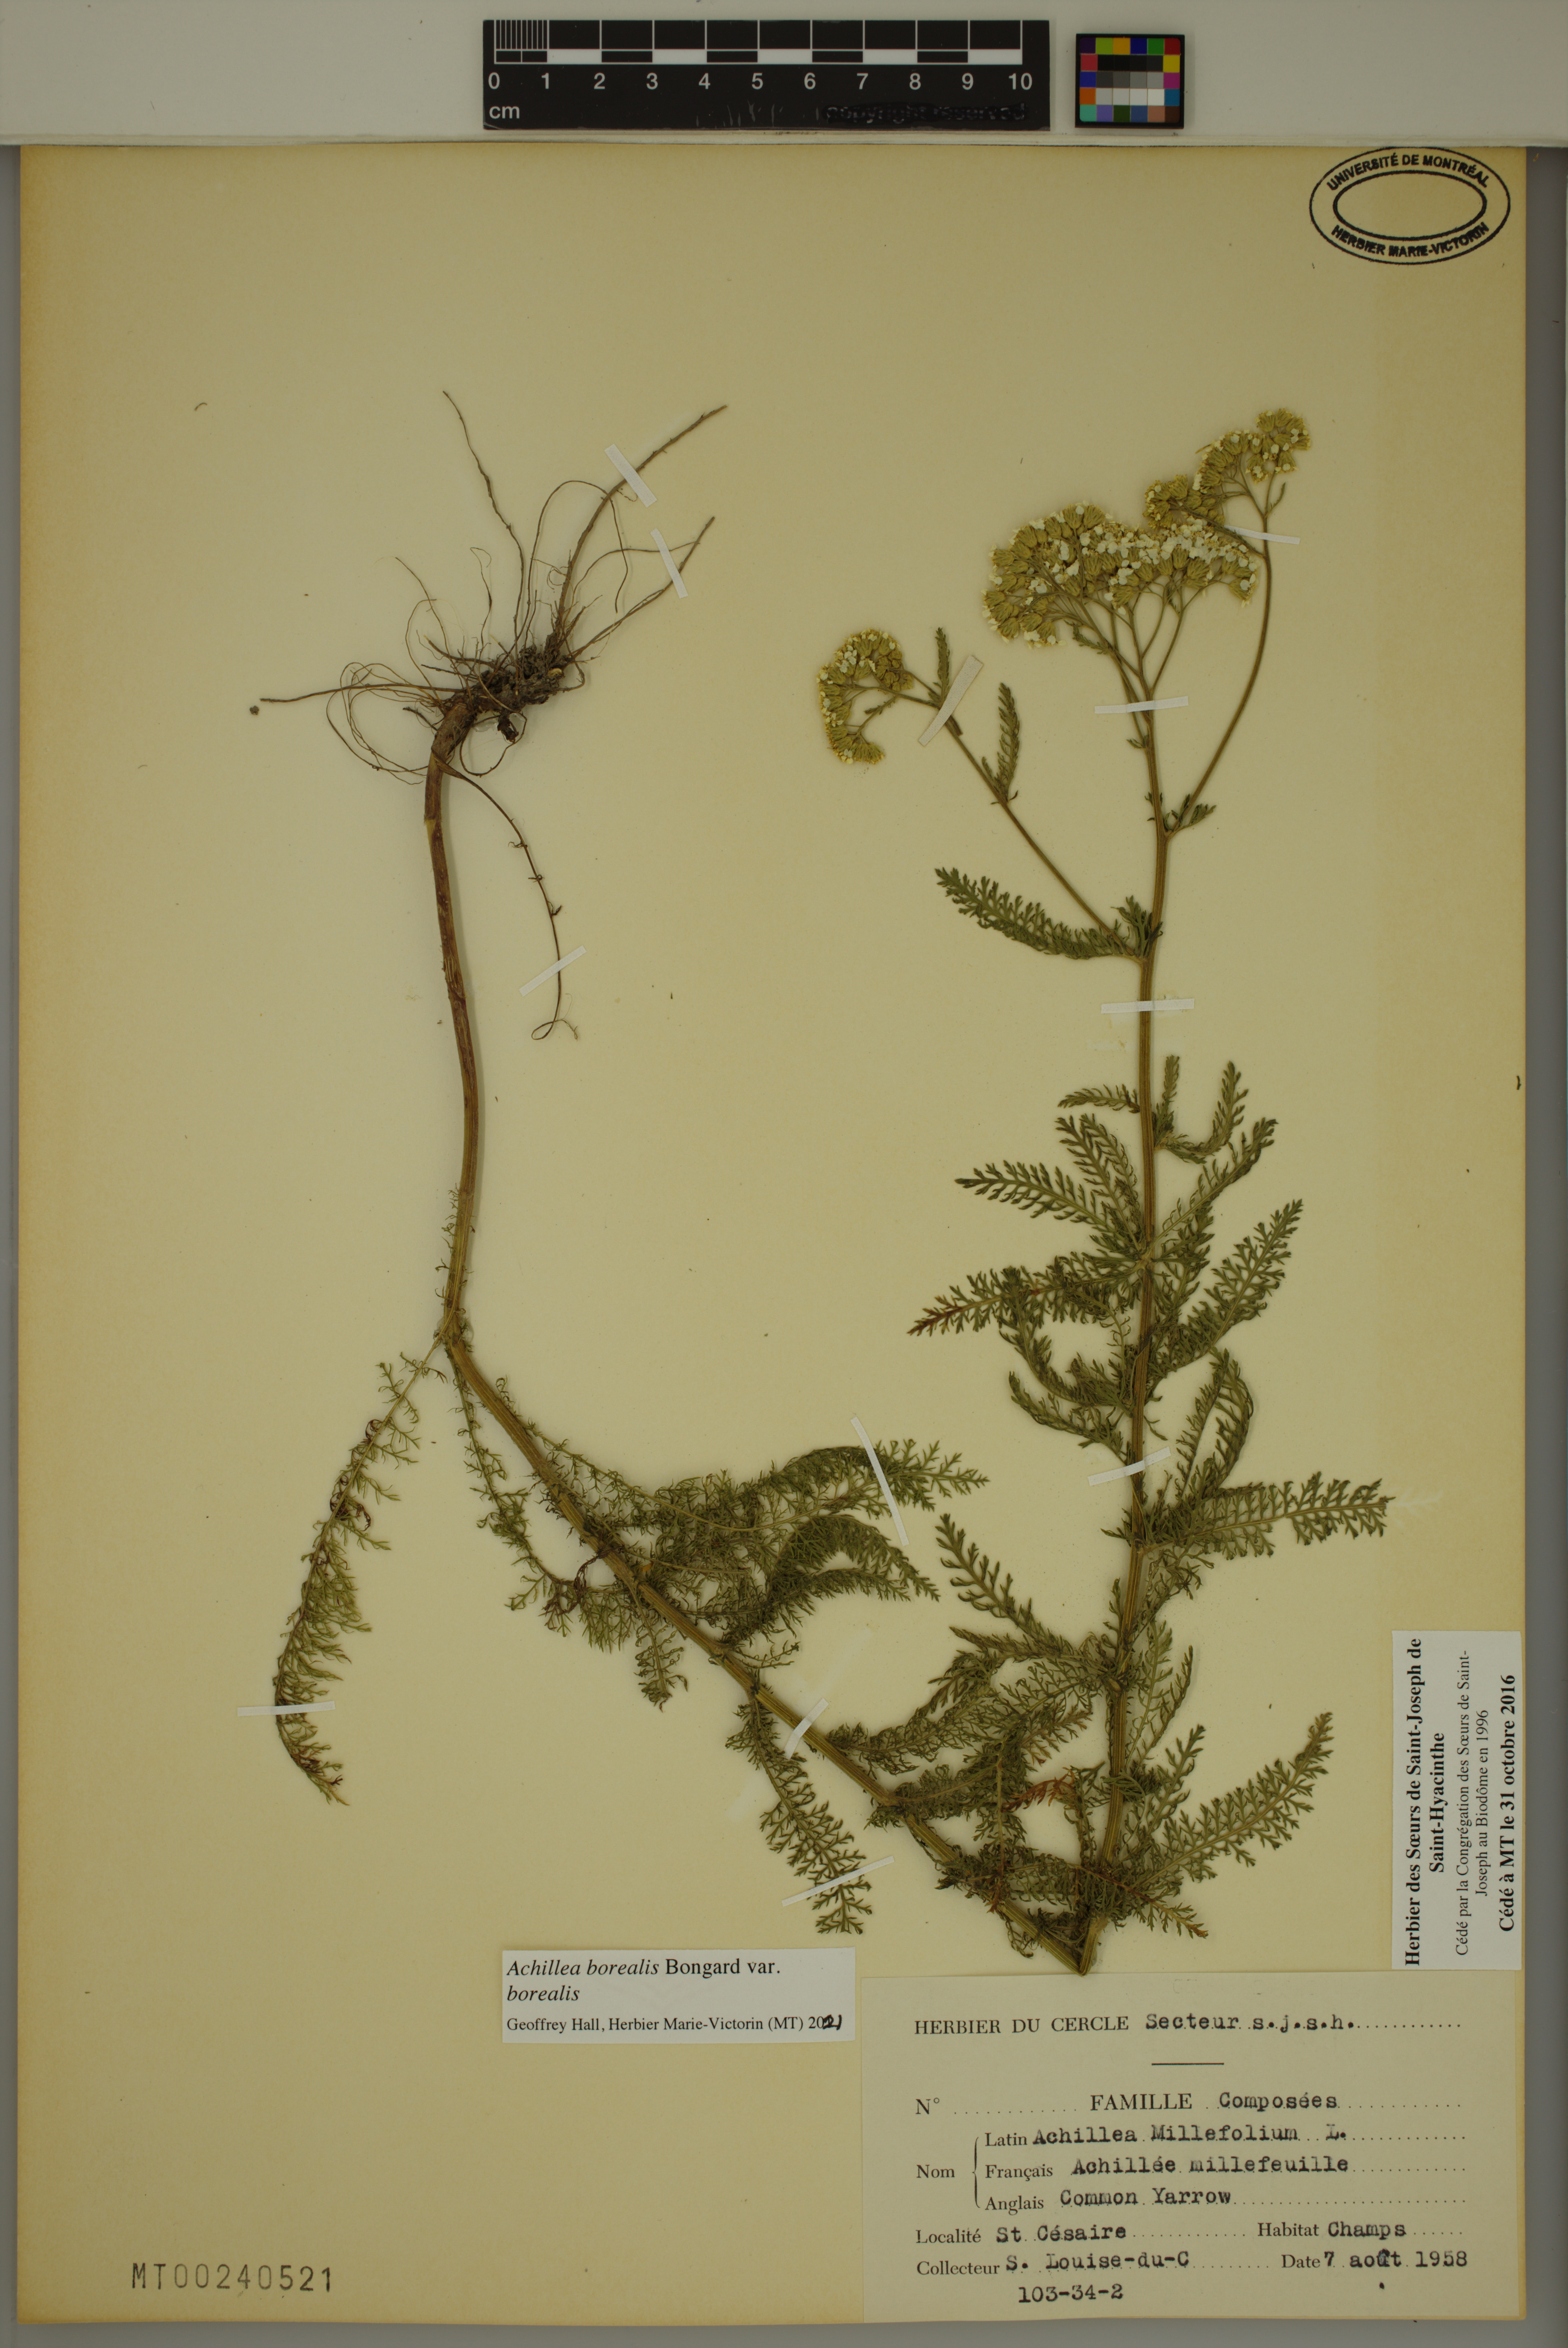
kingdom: Plantae
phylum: Tracheophyta
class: Magnoliopsida
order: Asterales
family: Asteraceae
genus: Achillea
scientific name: Achillea millefolium
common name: Yarrow
